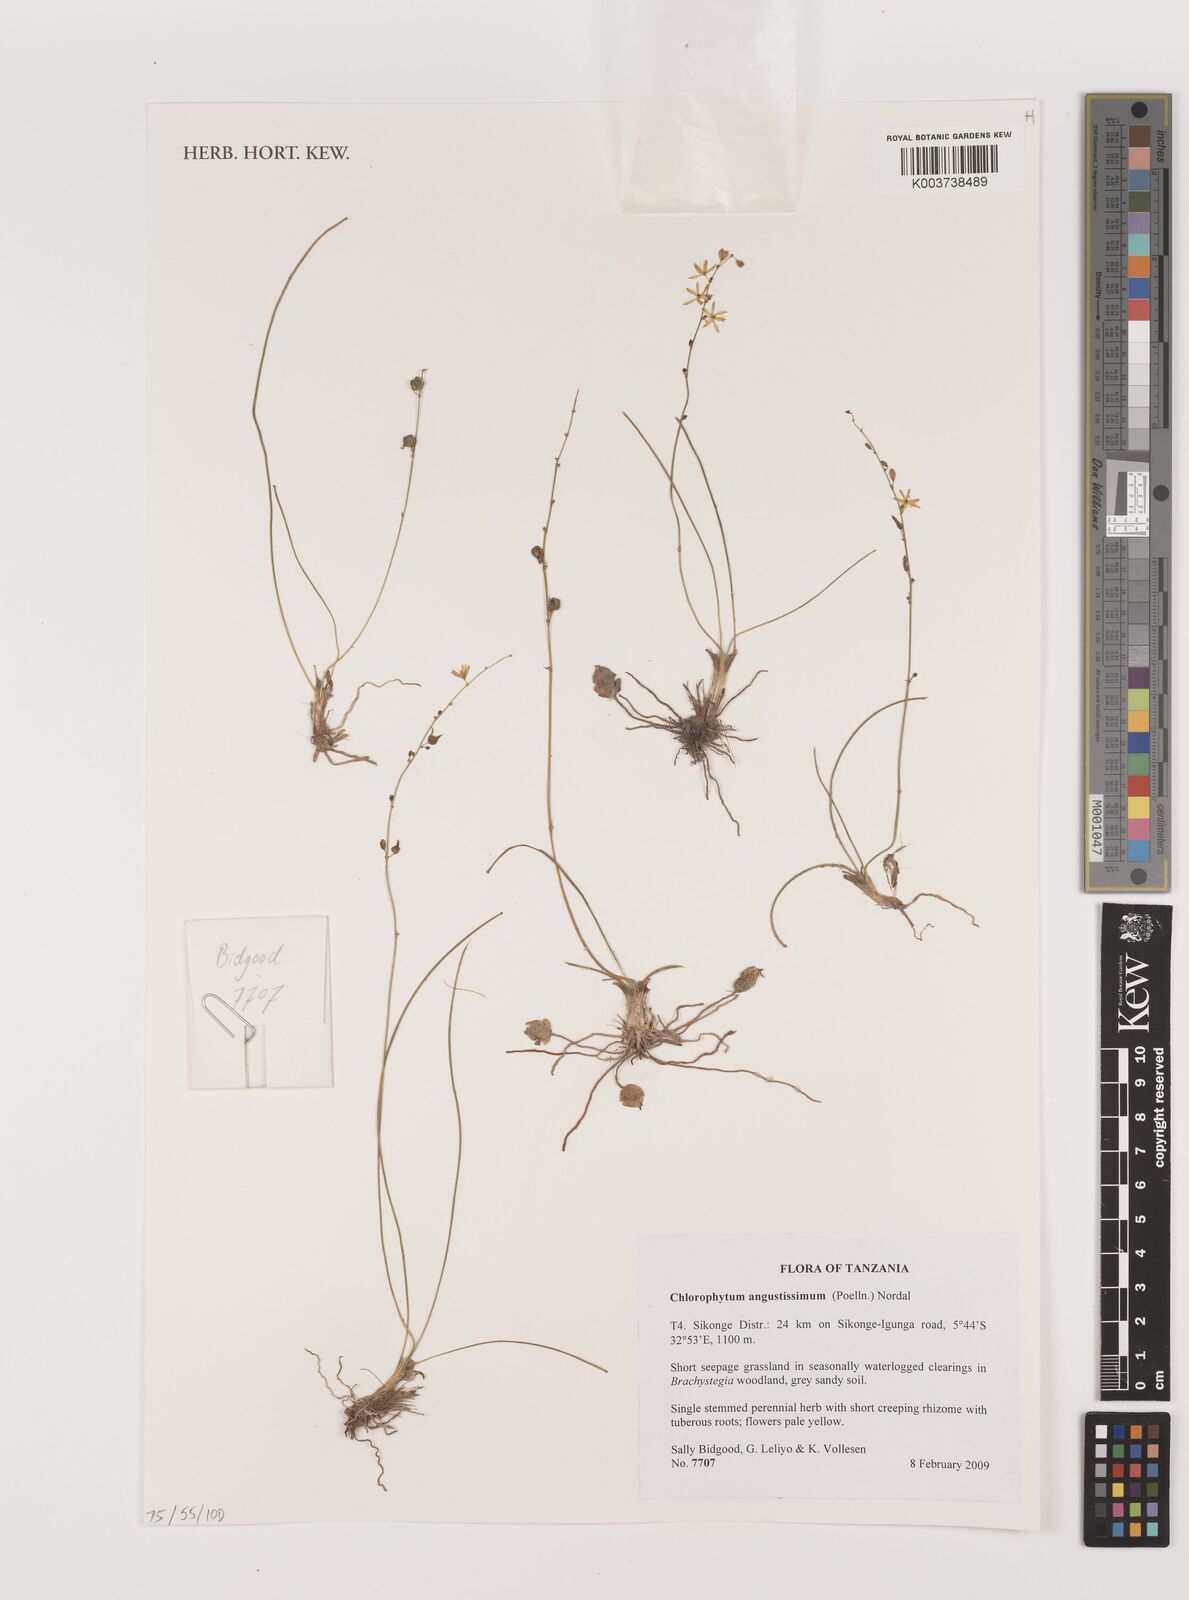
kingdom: Plantae
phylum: Tracheophyta
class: Liliopsida
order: Asparagales
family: Asparagaceae
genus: Chlorophytum
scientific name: Chlorophytum angustissimum
